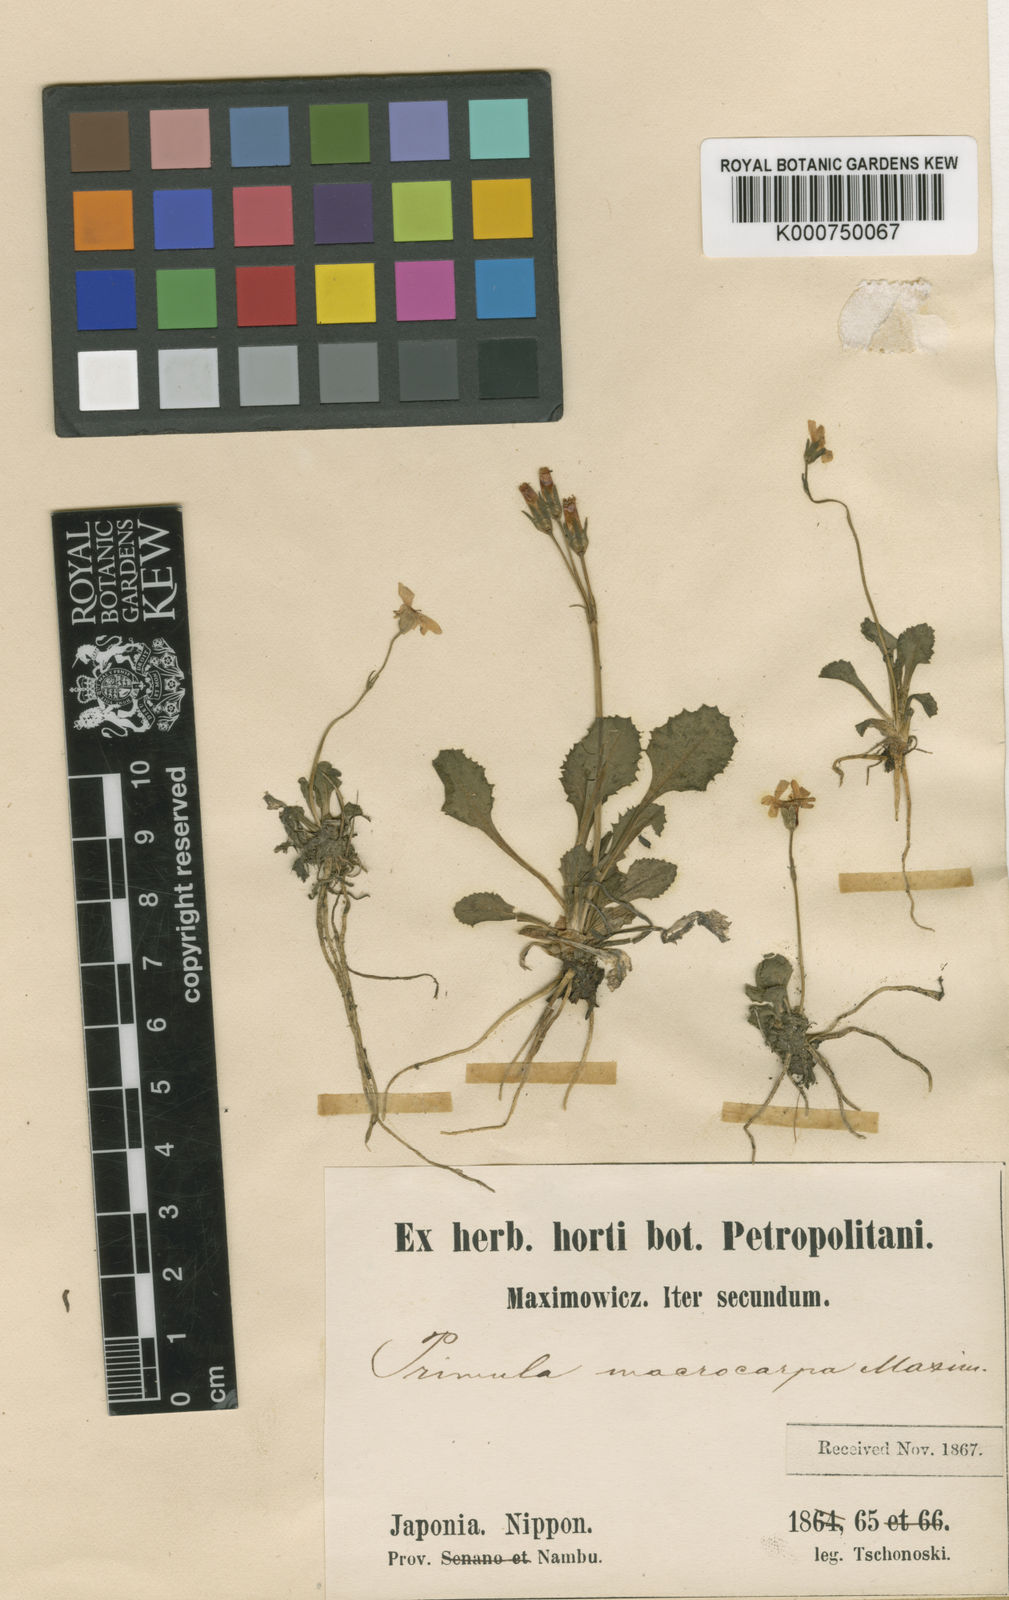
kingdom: Plantae
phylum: Tracheophyta
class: Magnoliopsida
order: Ericales
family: Primulaceae
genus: Primula
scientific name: Primula macrocarpa
